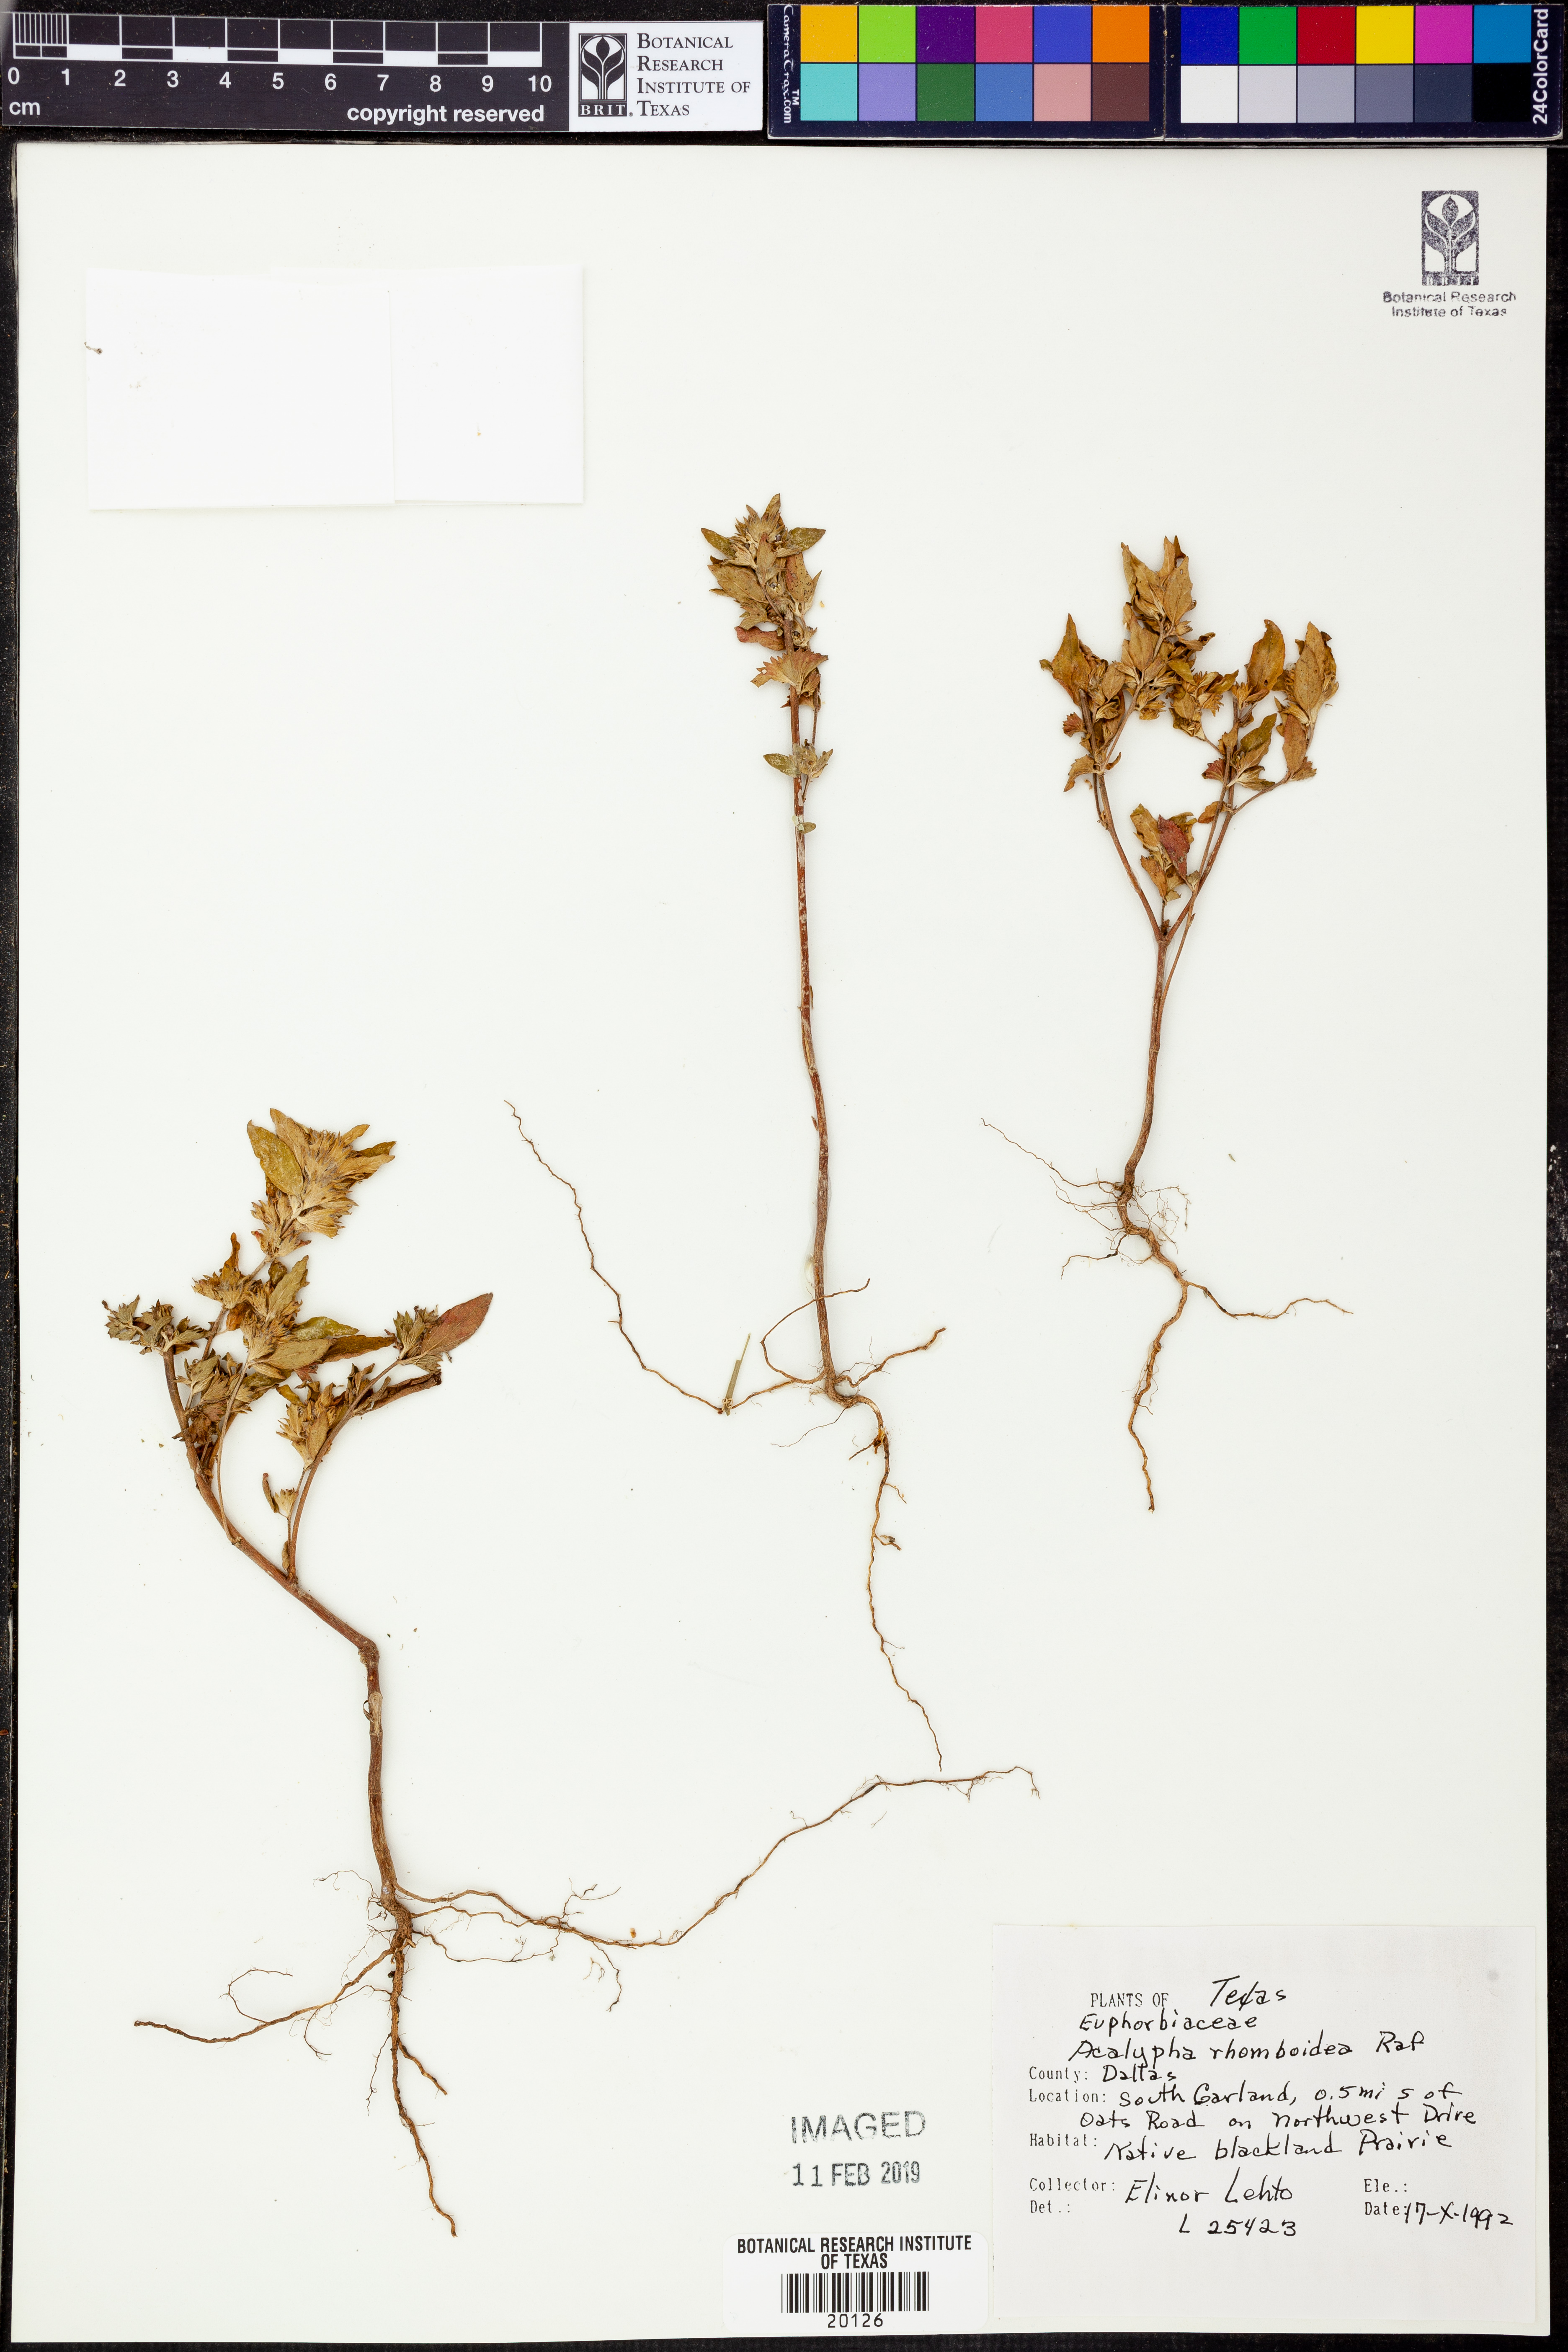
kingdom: Plantae
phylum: Tracheophyta
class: Magnoliopsida
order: Malpighiales
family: Euphorbiaceae
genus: Acalypha
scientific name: Acalypha rhomboidea
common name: Rhombic copperleaf
